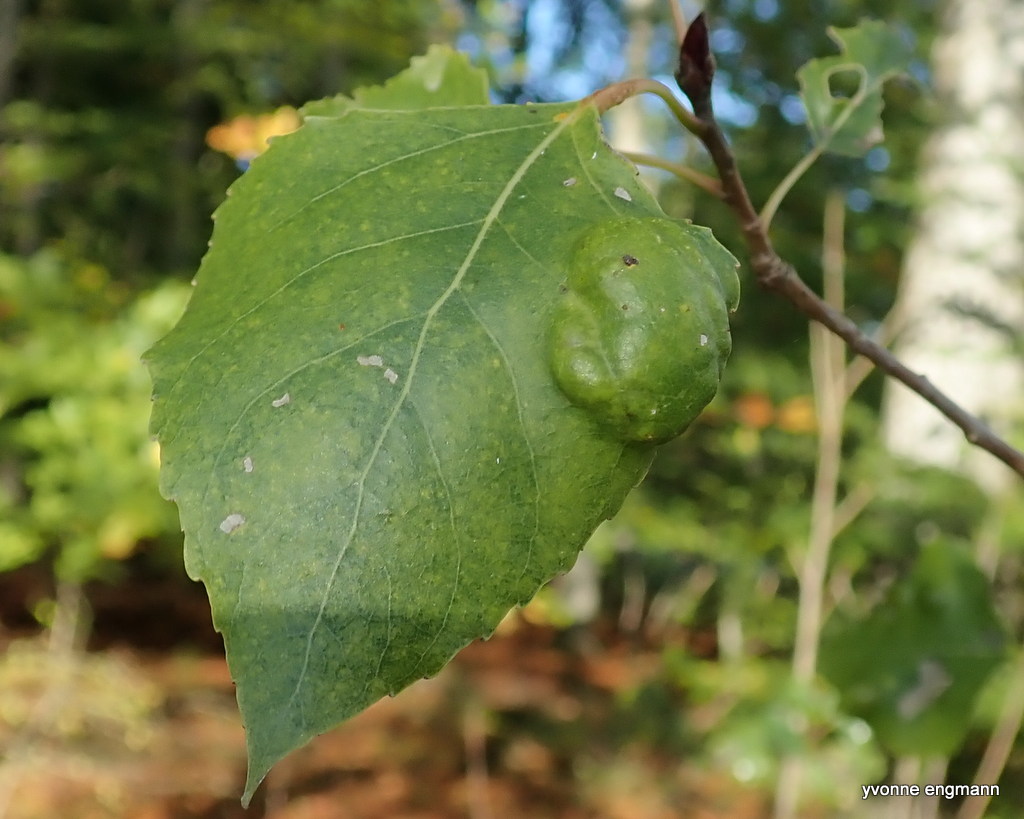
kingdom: Fungi
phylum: Ascomycota
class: Taphrinomycetes
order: Taphrinales
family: Taphrinaceae
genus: Taphrina
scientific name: Taphrina populina
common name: Poplar leaf curl
